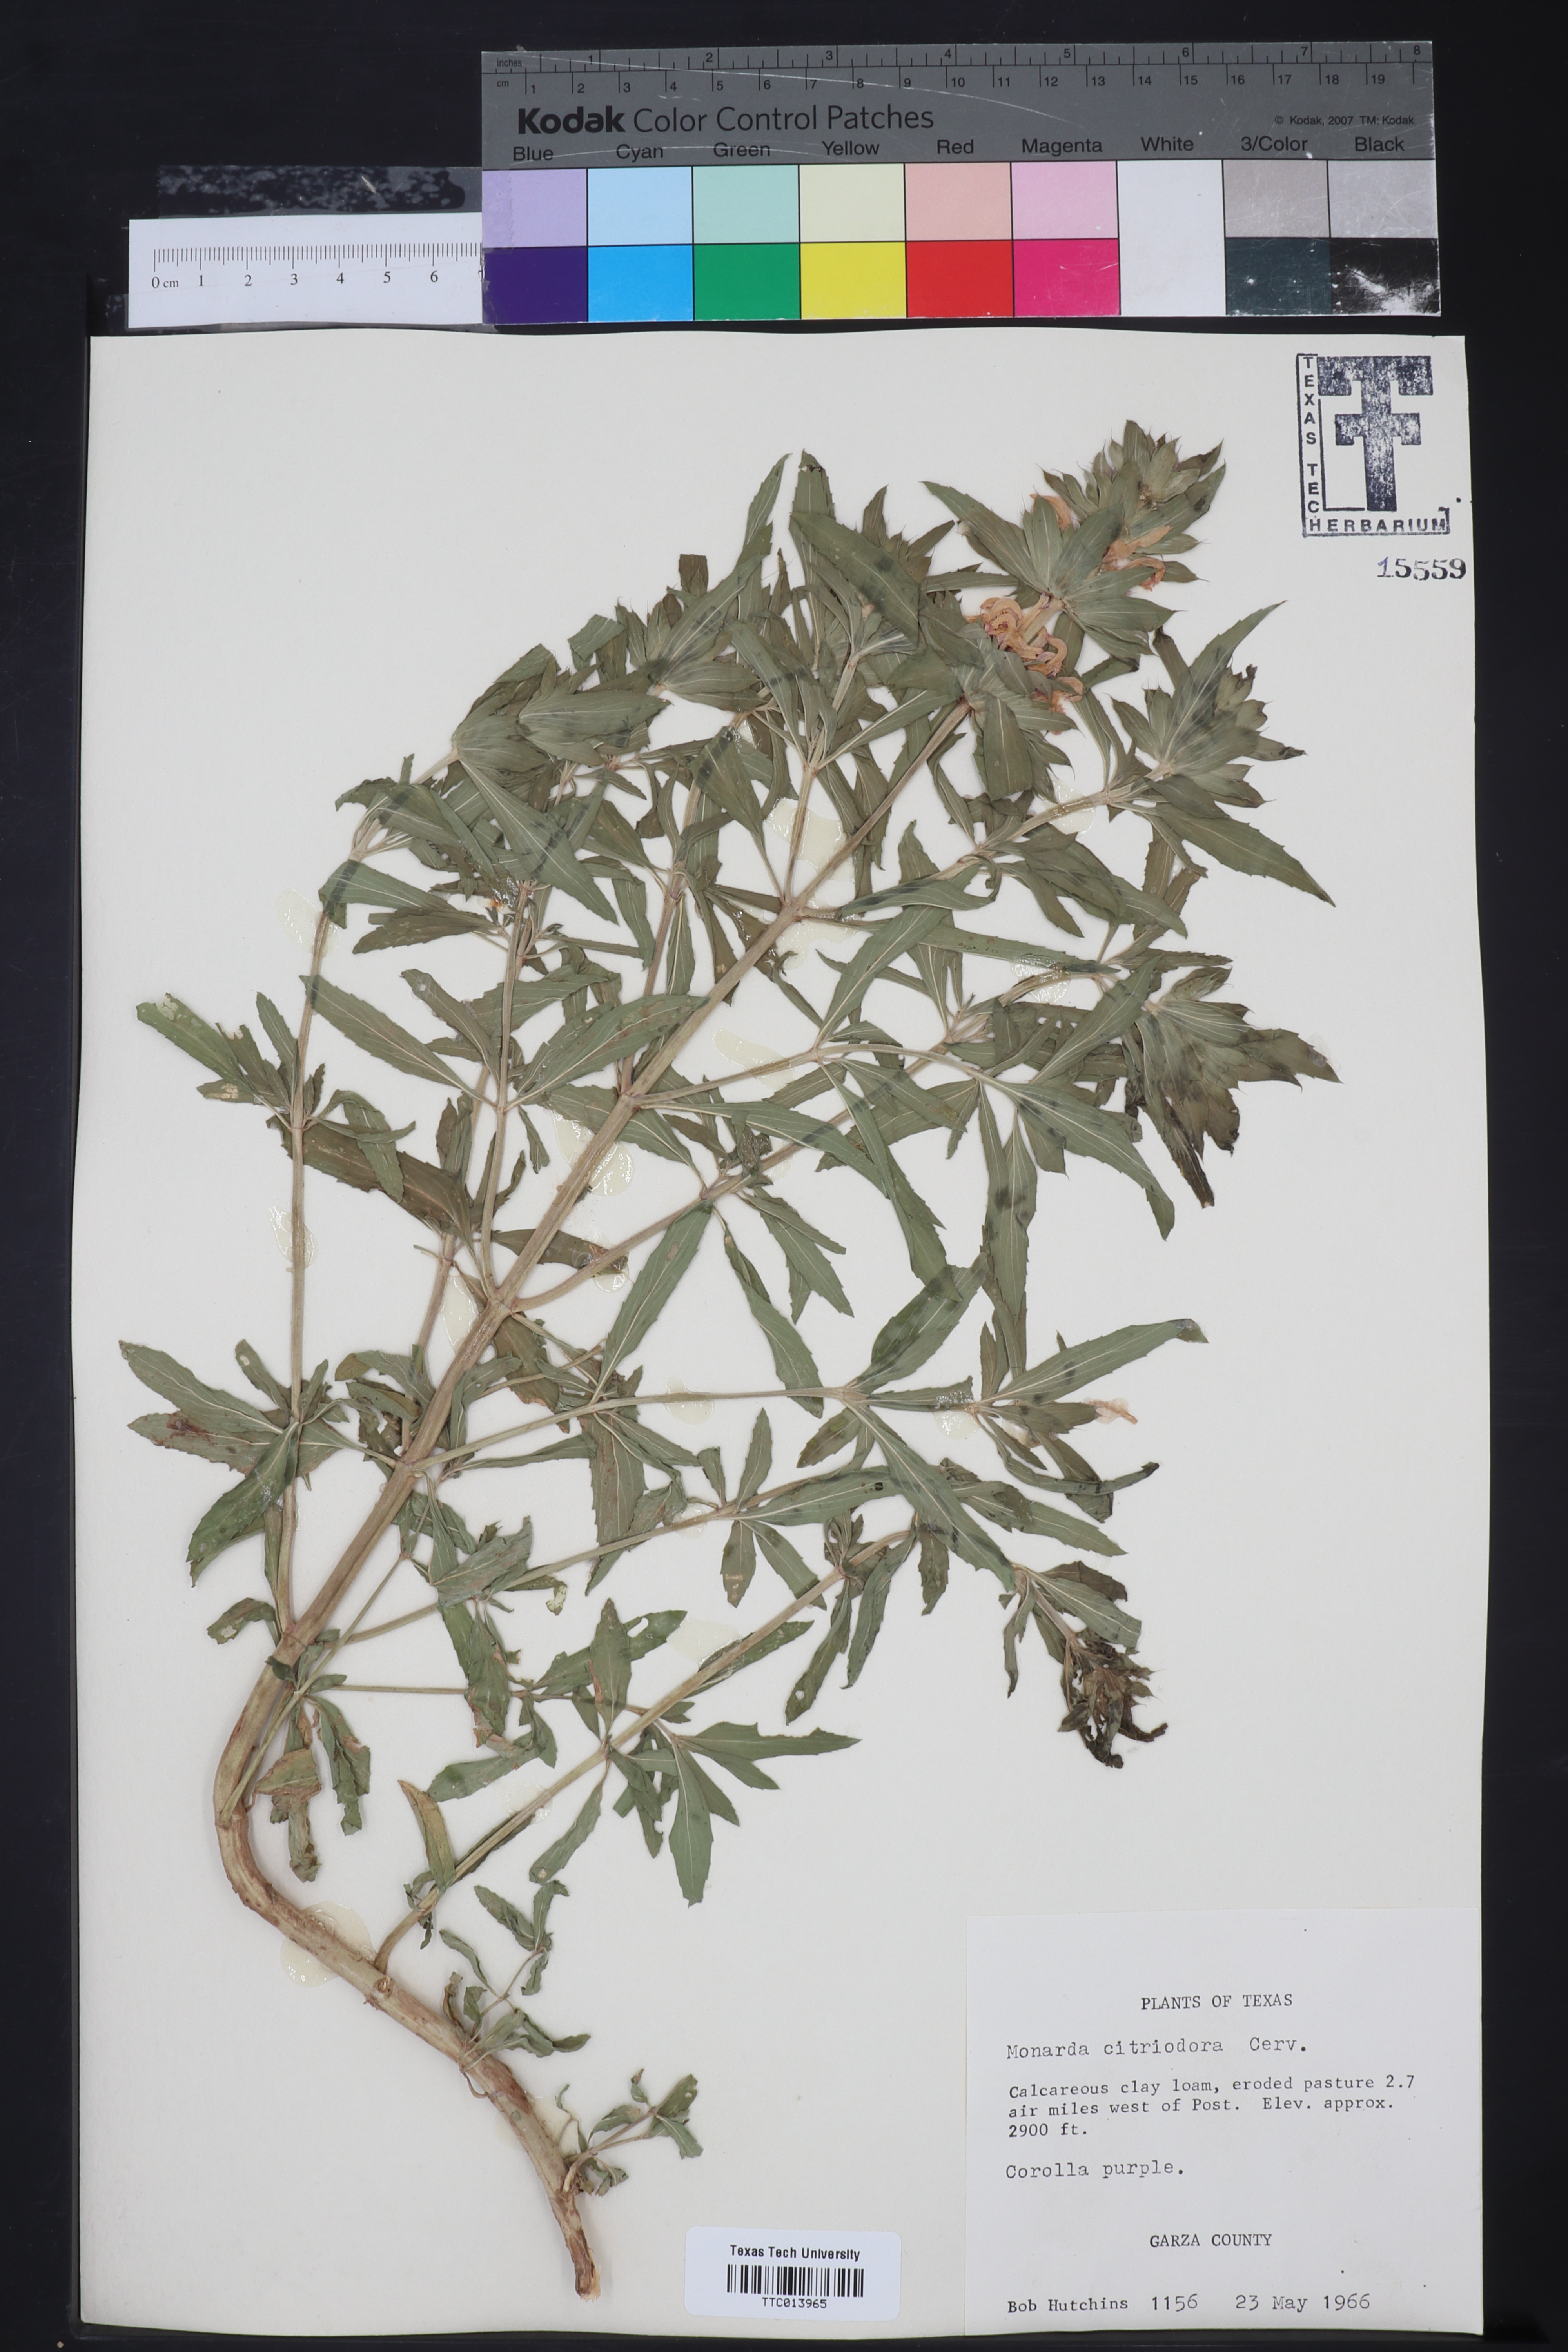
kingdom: Plantae
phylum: Tracheophyta
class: Magnoliopsida
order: Lamiales
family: Lamiaceae
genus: Monarda
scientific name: Monarda citriodora
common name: Lemon beebalm
